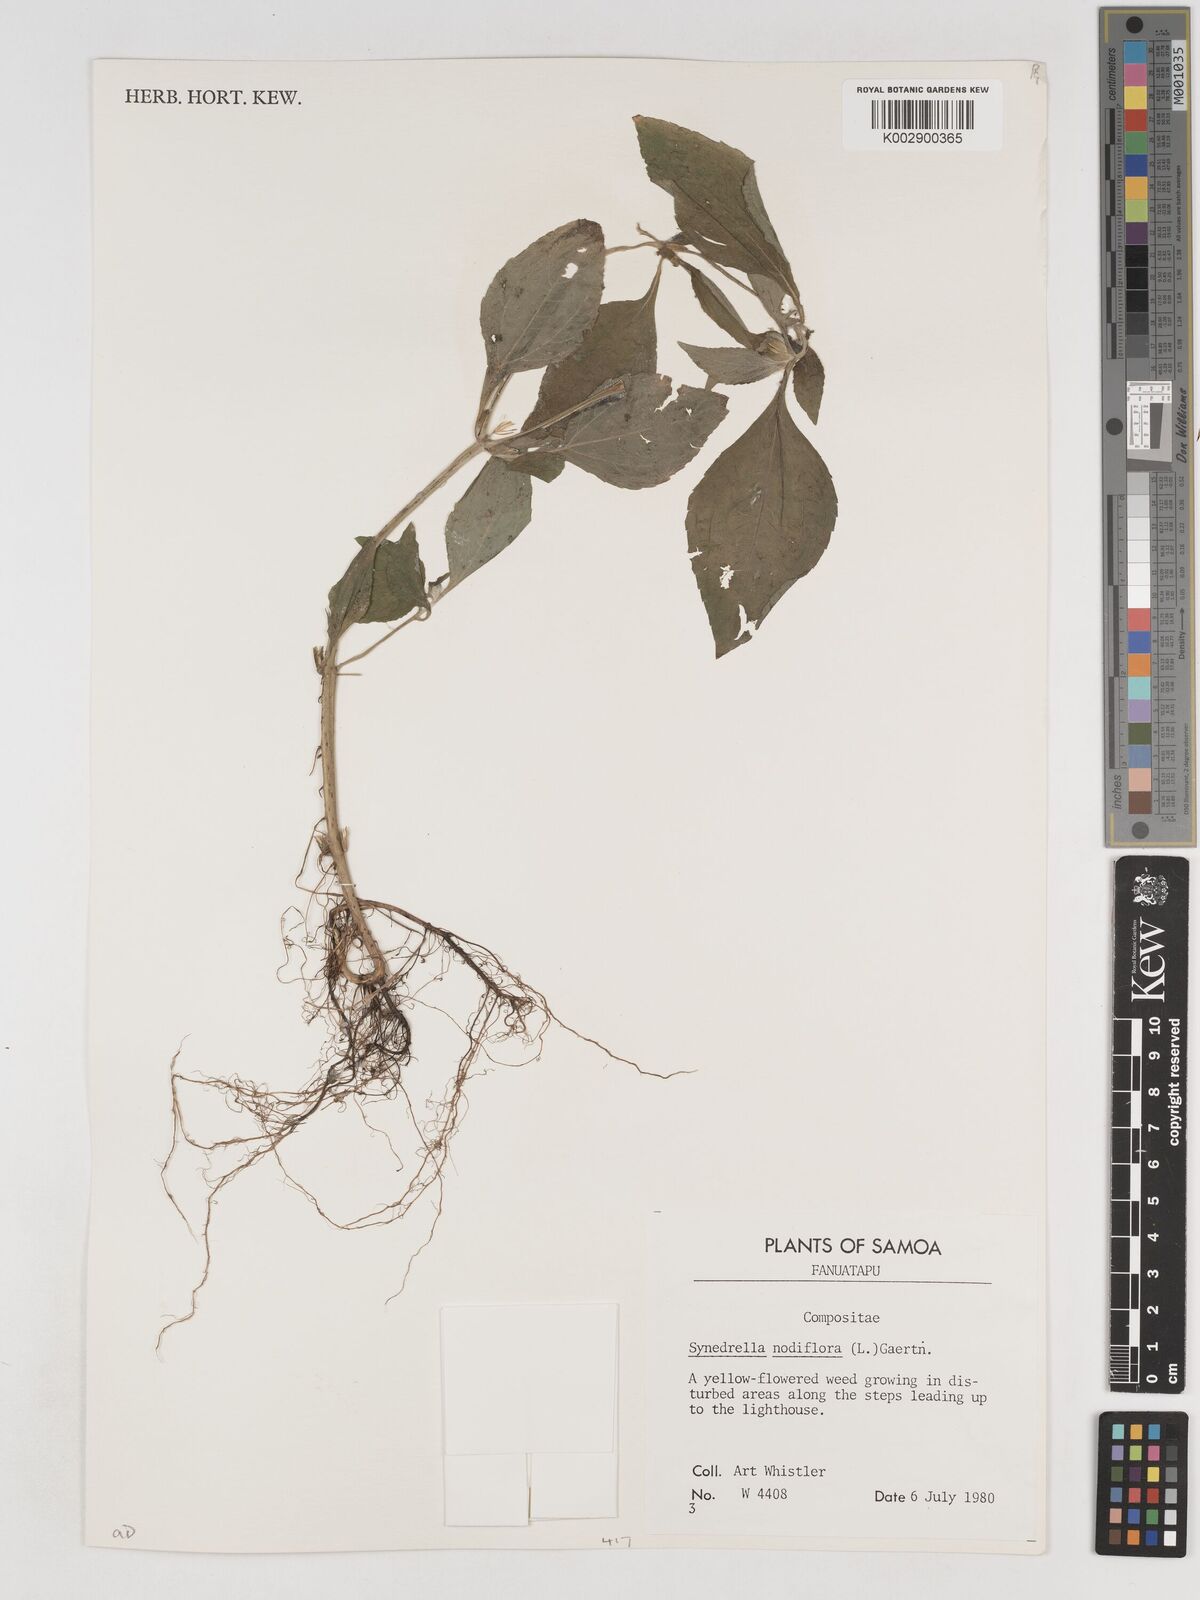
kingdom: Plantae
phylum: Tracheophyta
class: Magnoliopsida
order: Asterales
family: Asteraceae
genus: Synedrella
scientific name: Synedrella nodiflora
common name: Nodeweed
